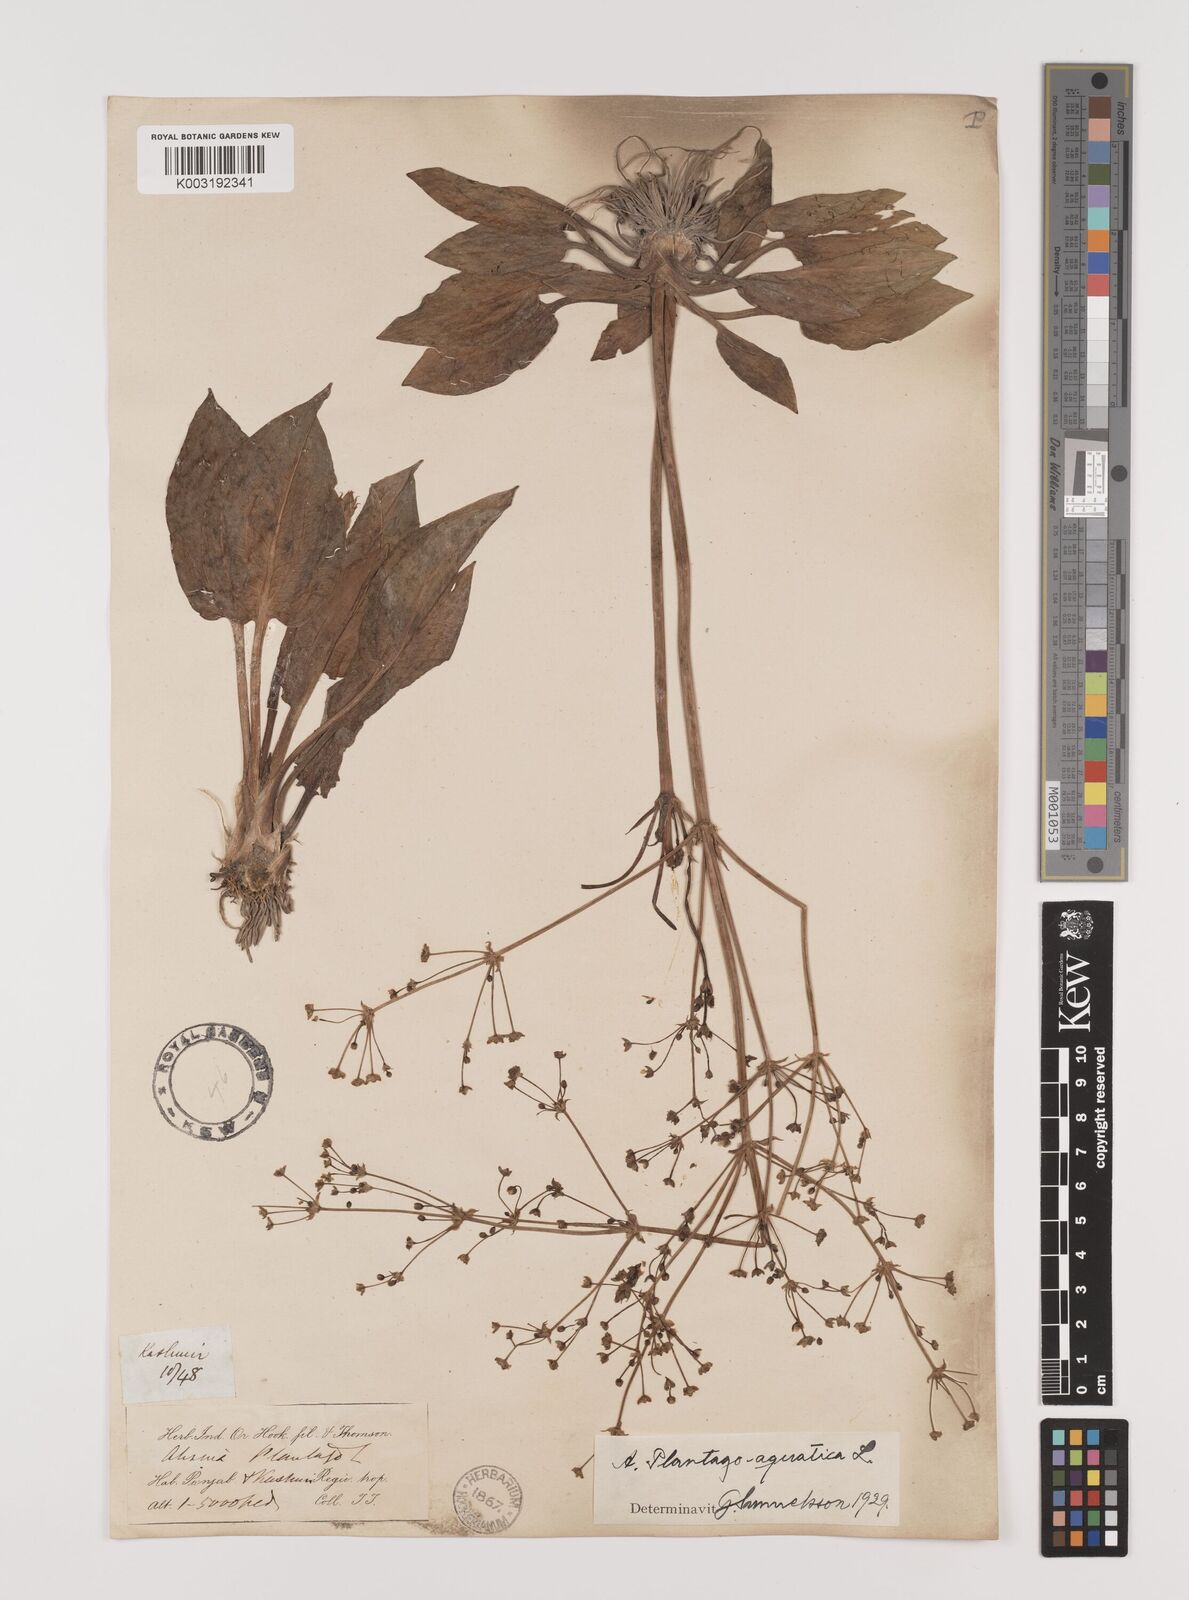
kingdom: Plantae
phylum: Tracheophyta
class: Liliopsida
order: Alismatales
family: Alismataceae
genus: Alisma
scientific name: Alisma plantago-aquatica
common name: Water-plantain
